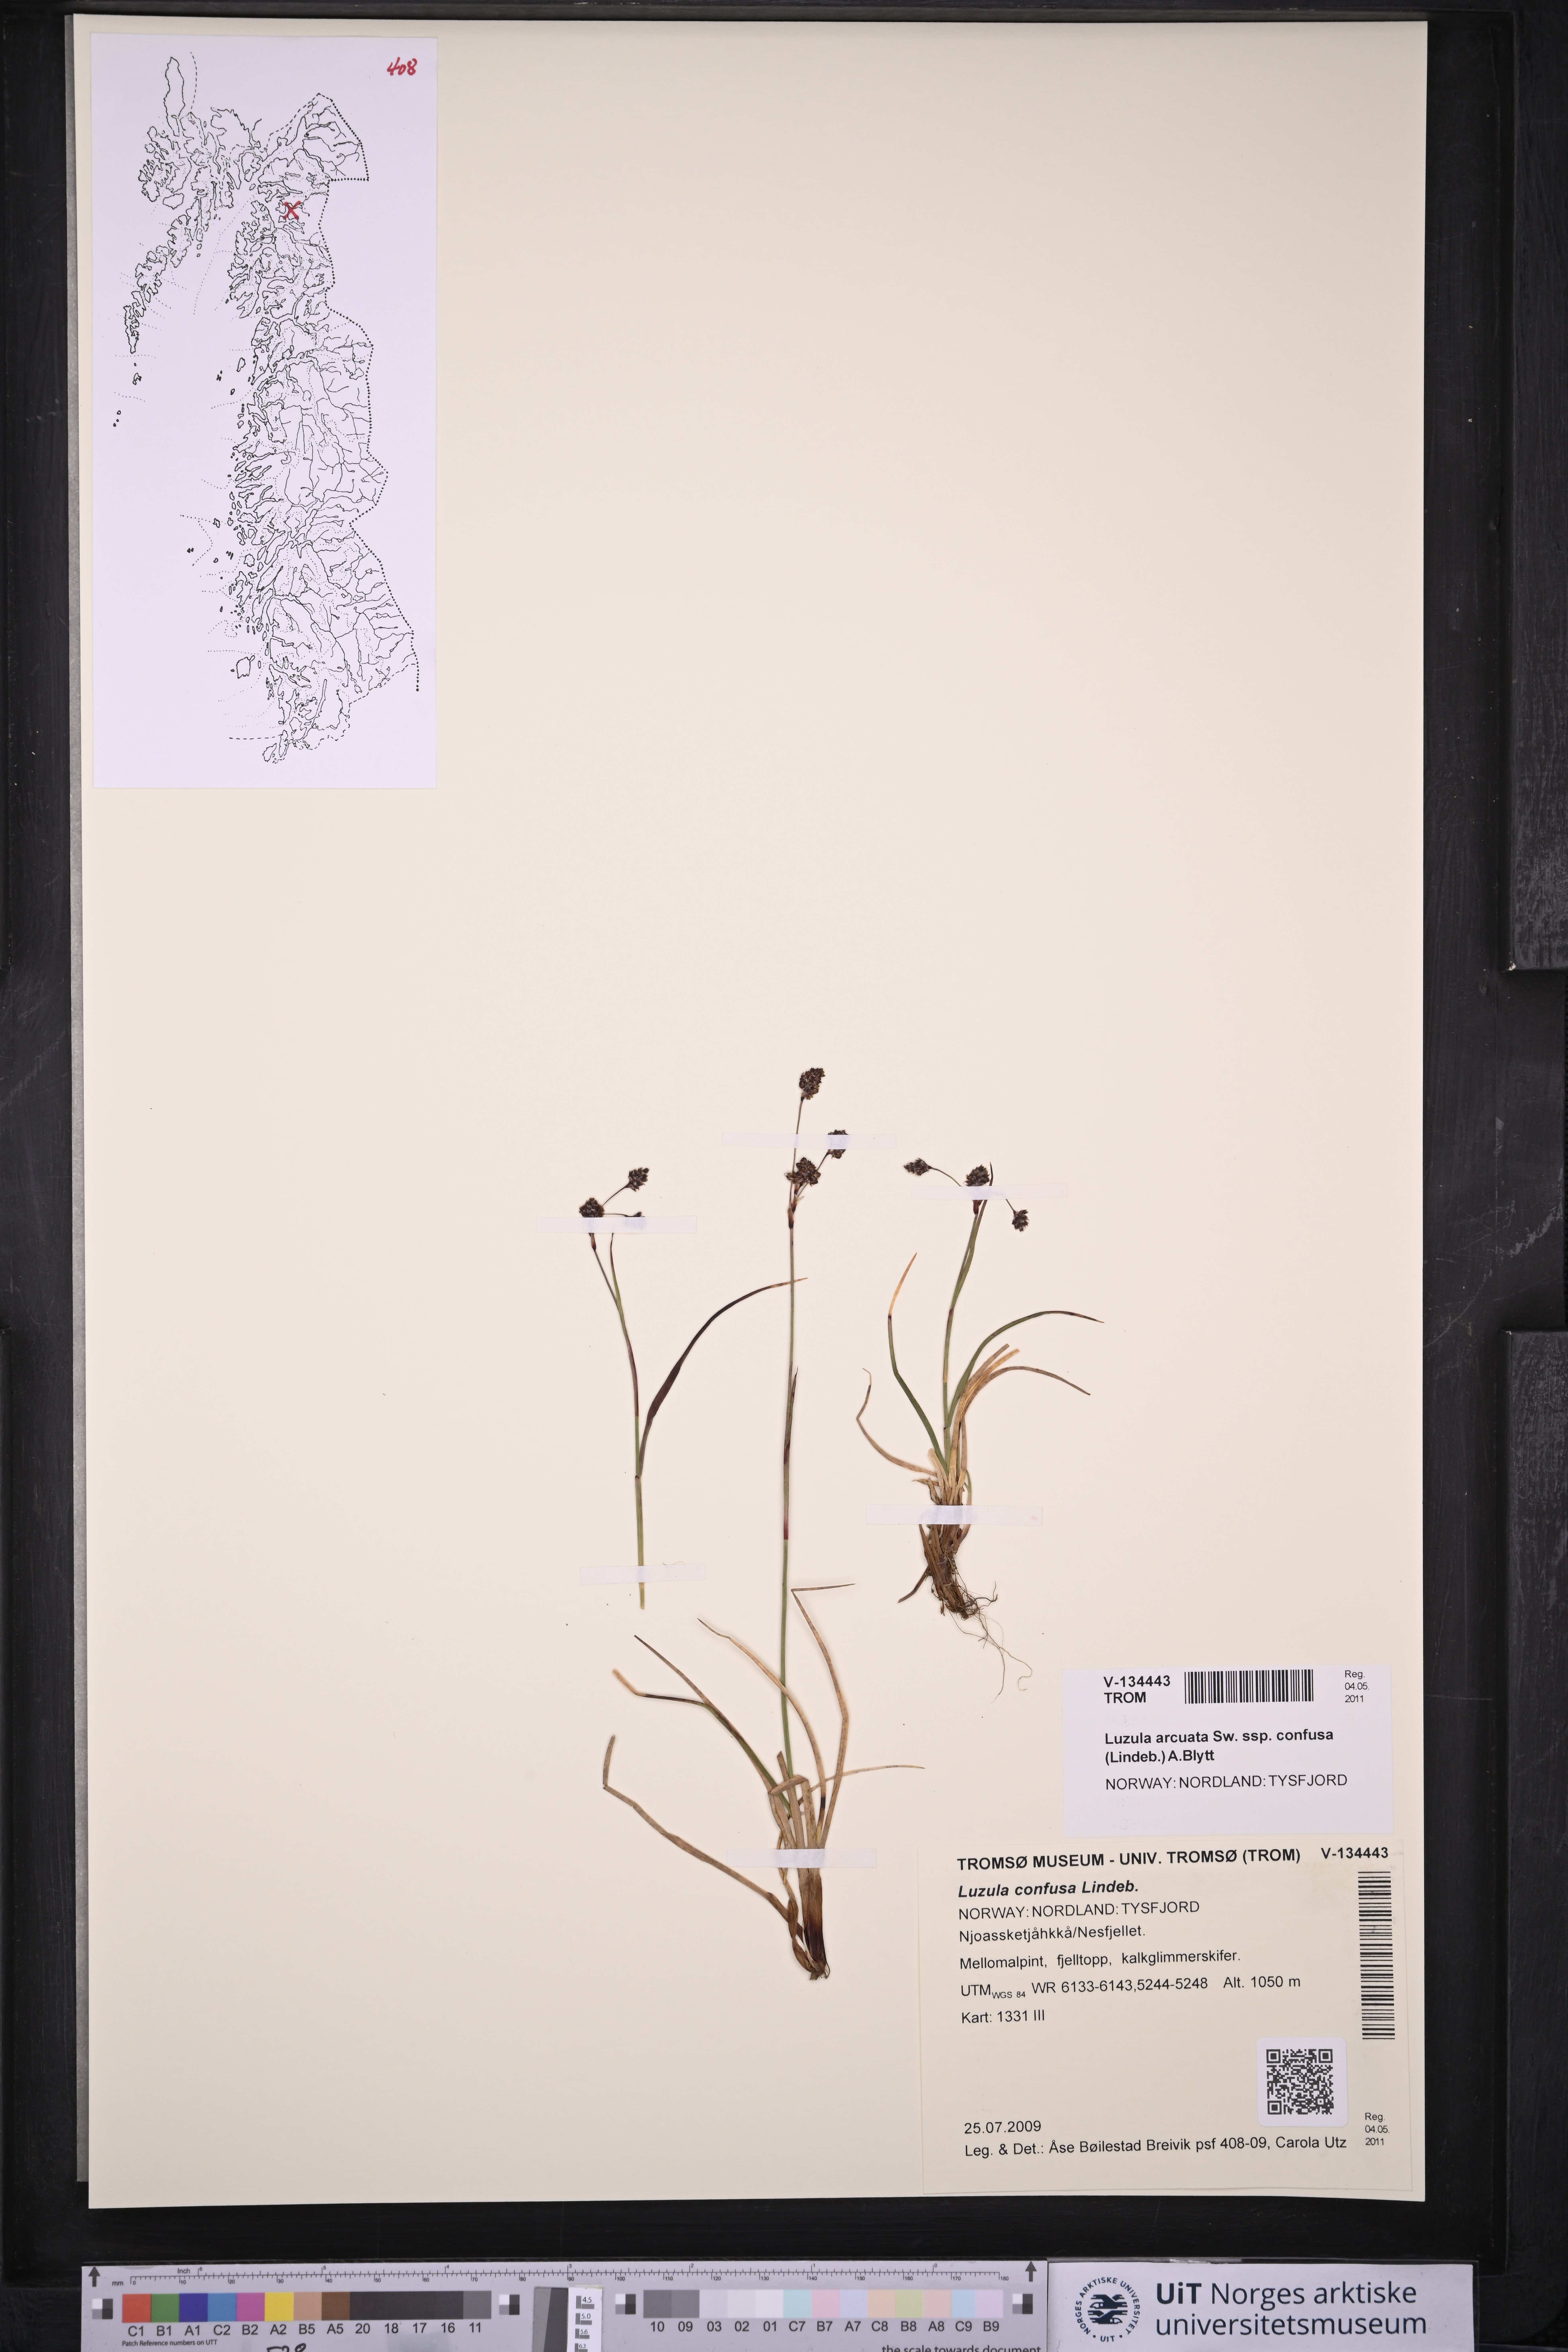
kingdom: Plantae
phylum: Tracheophyta
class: Liliopsida
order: Poales
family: Juncaceae
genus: Luzula
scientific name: Luzula confusa
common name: Northern wood rush
